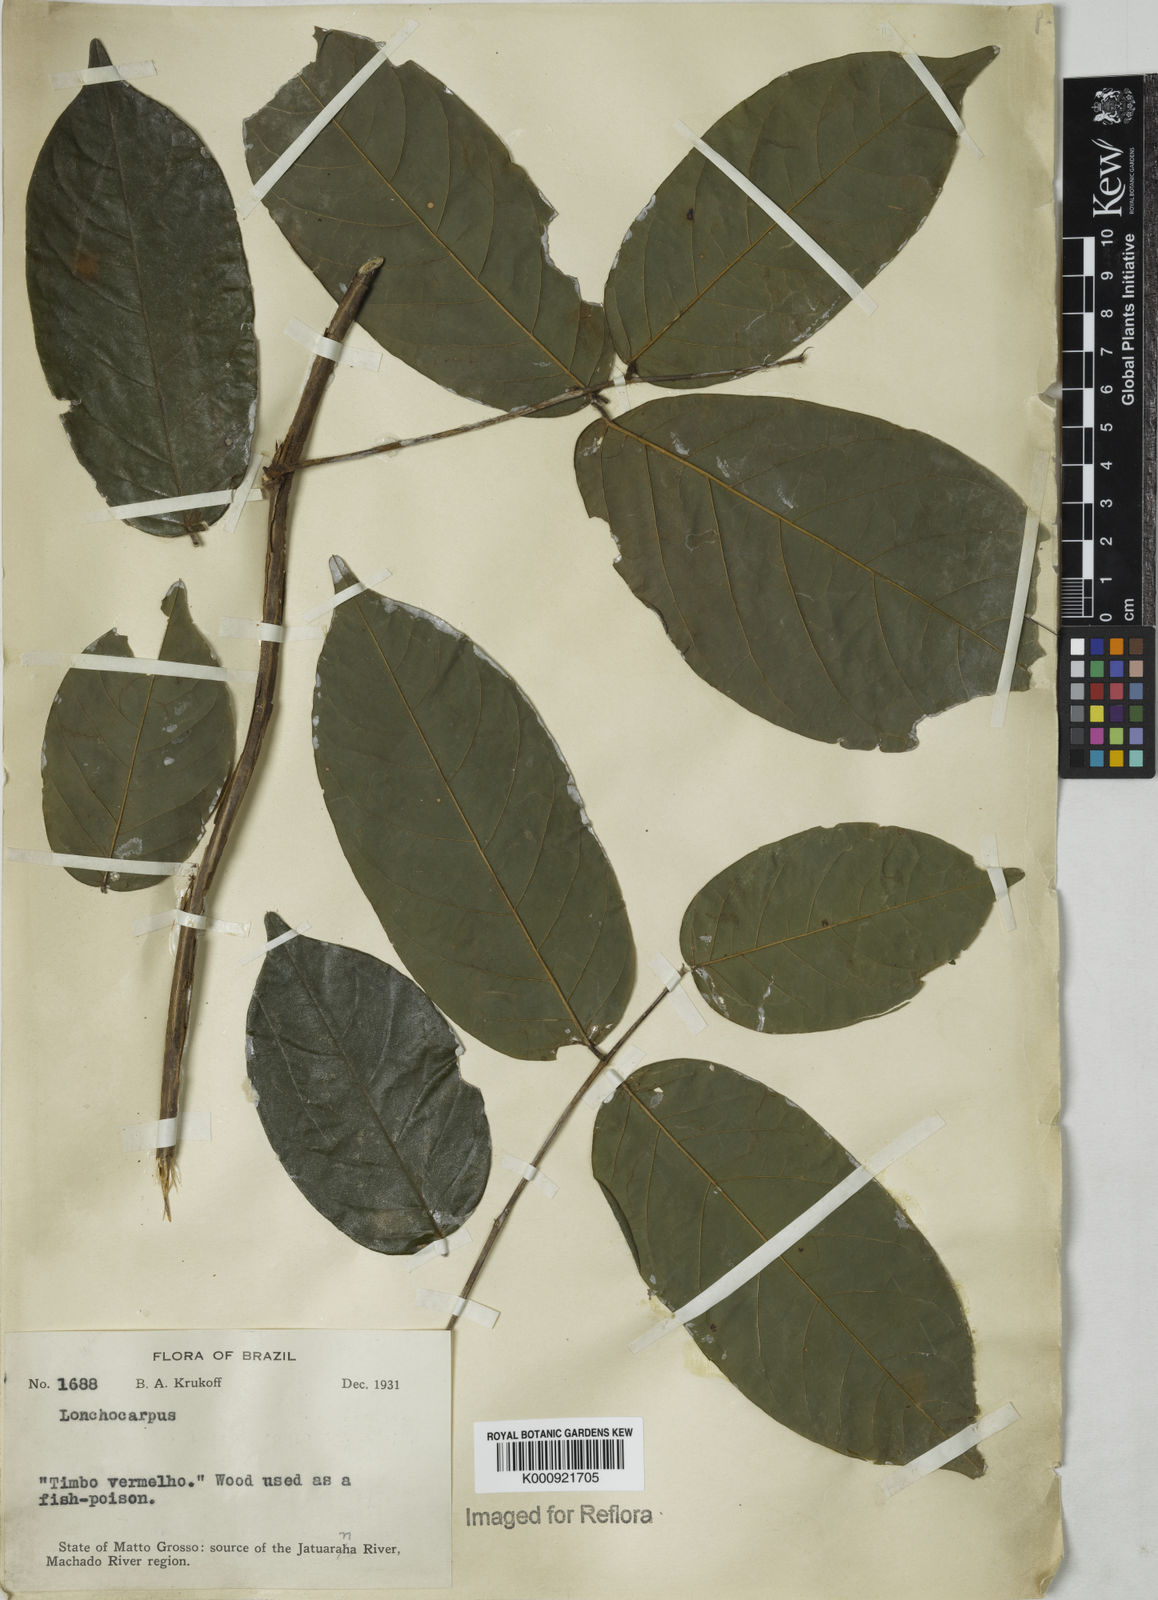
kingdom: Plantae
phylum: Tracheophyta
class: Magnoliopsida
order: Fabales
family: Fabaceae
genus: Lonchocarpus
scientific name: Lonchocarpus
